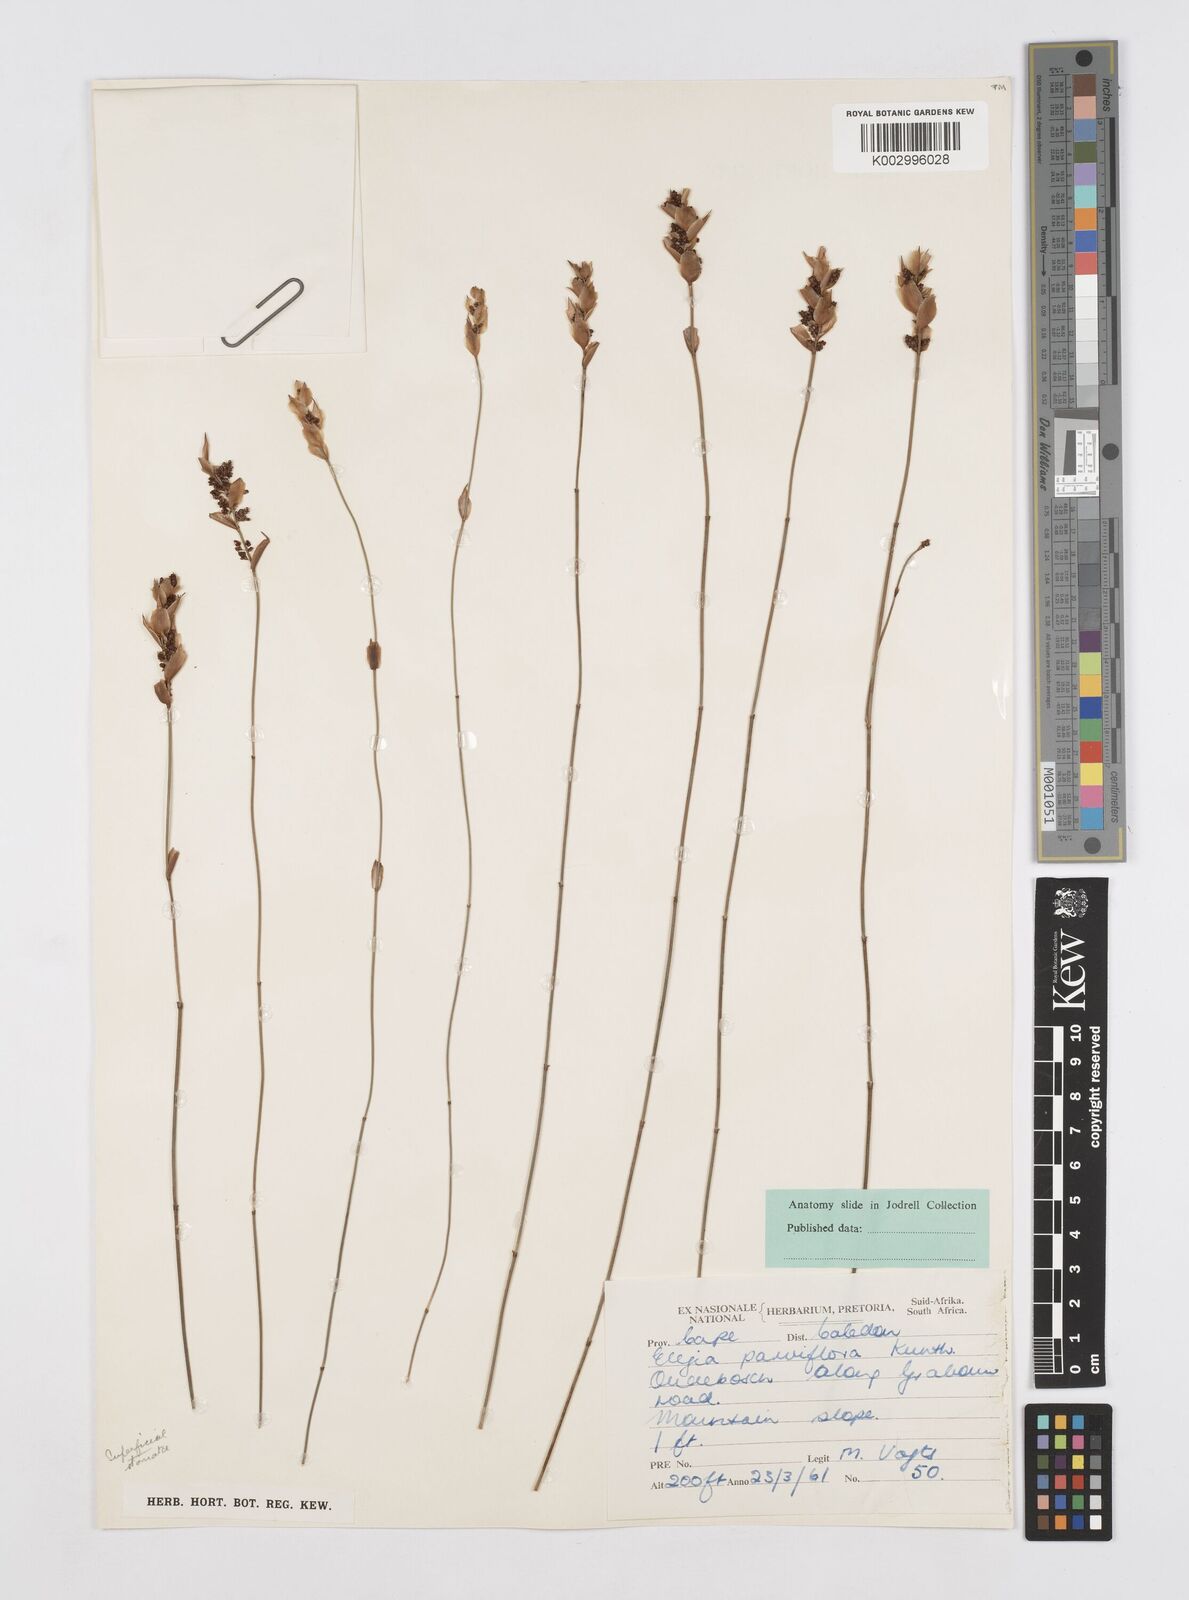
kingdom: Plantae
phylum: Tracheophyta
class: Liliopsida
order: Poales
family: Restionaceae
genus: Cannomois
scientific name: Cannomois parviflora
